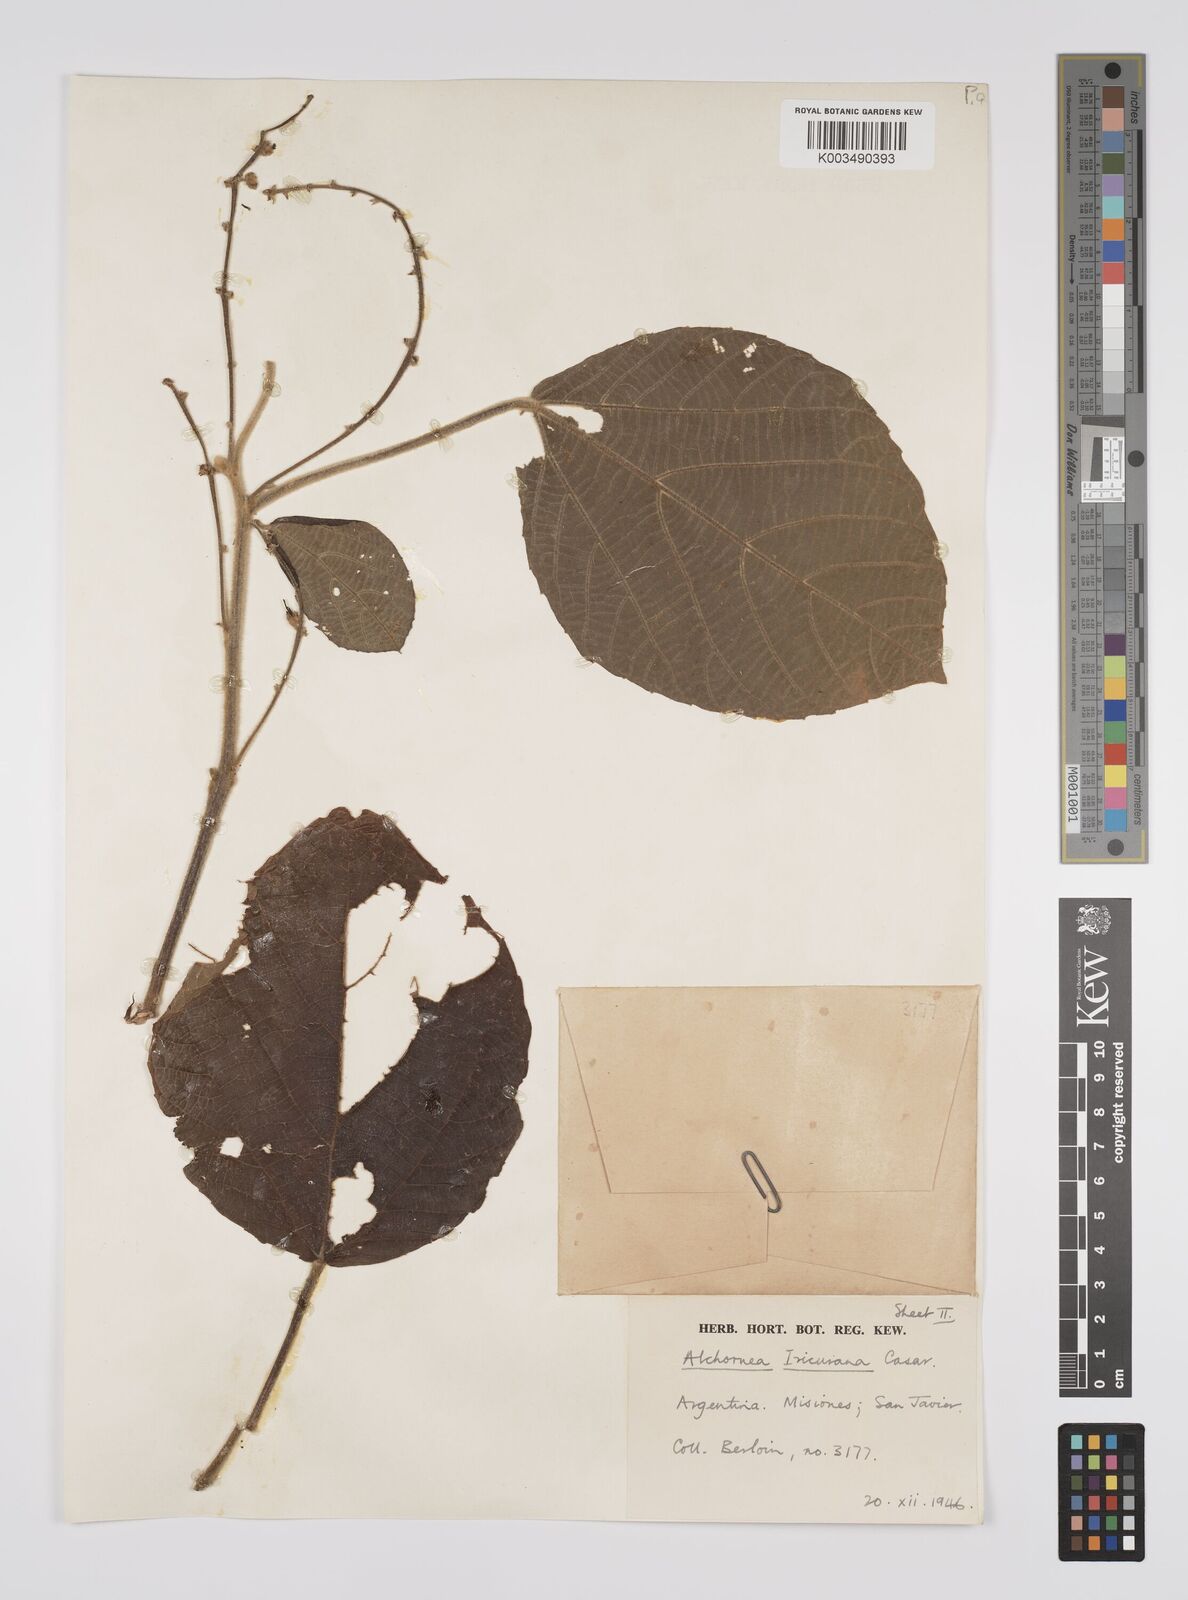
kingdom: Plantae
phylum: Tracheophyta
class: Magnoliopsida
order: Malpighiales
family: Euphorbiaceae
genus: Alchornea
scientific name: Alchornea glandulosa
